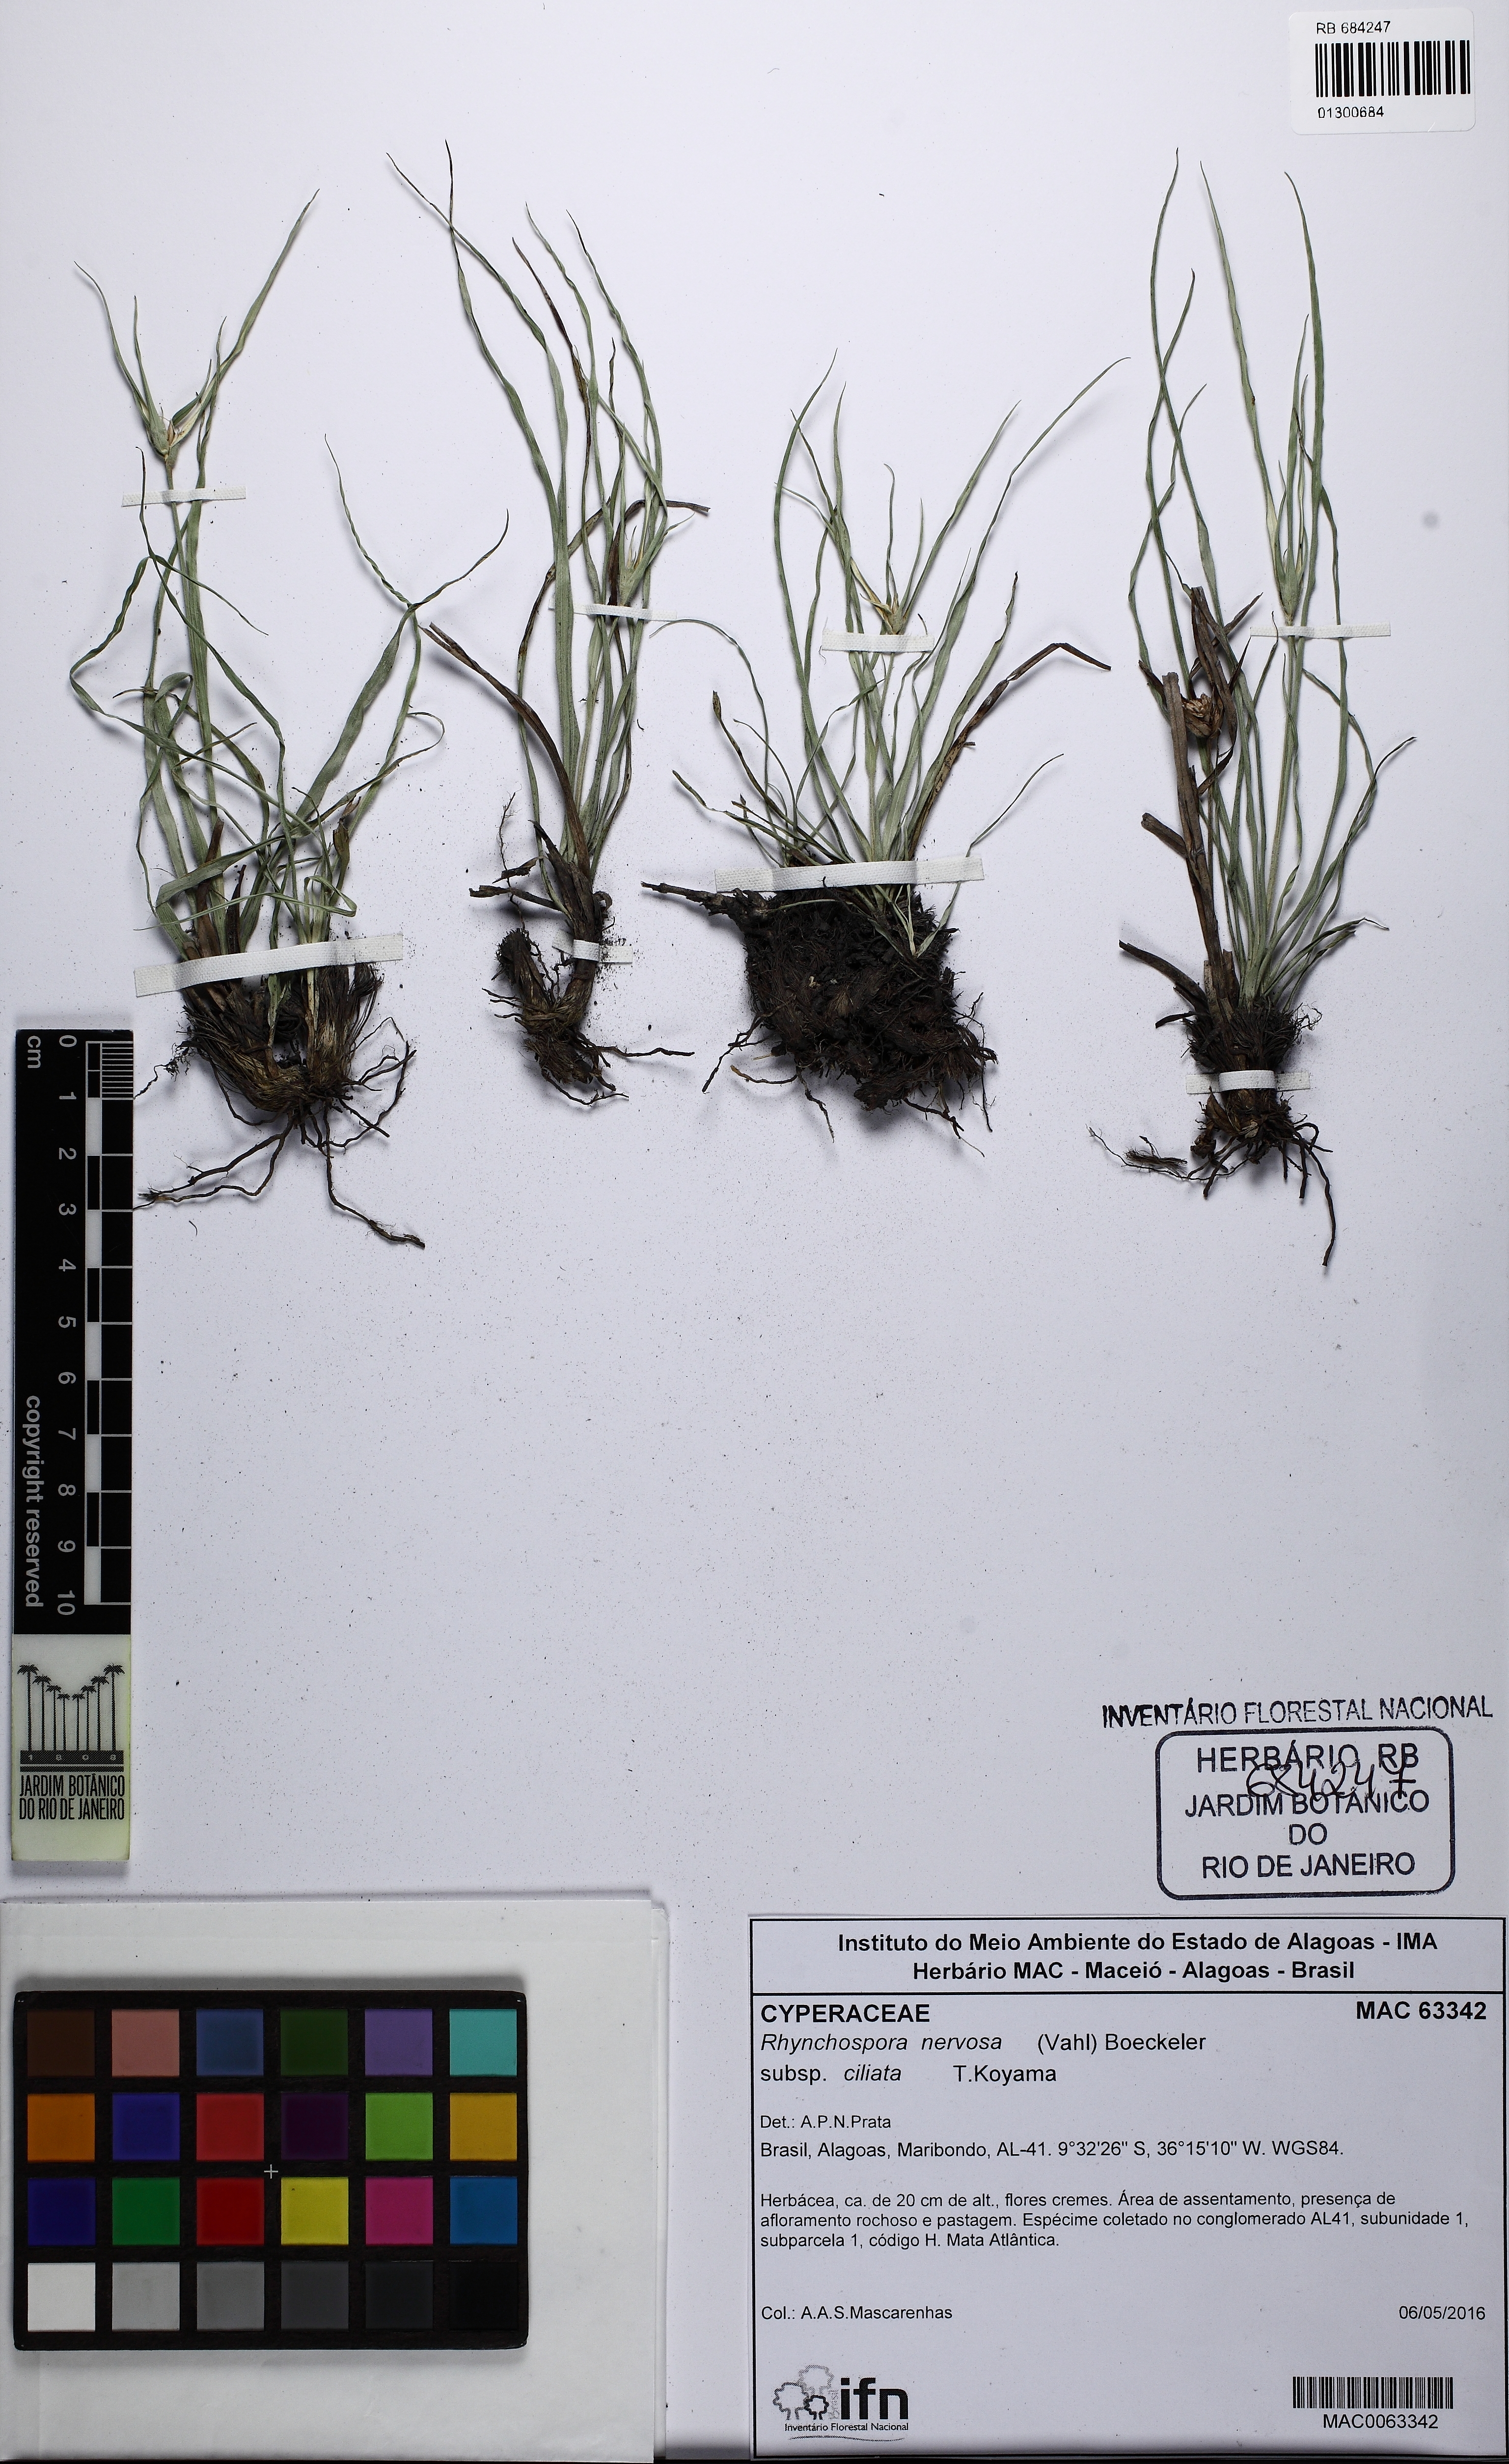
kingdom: Plantae
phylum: Tracheophyta
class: Liliopsida
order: Poales
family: Cyperaceae
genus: Rhynchospora
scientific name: Rhynchospora pura
